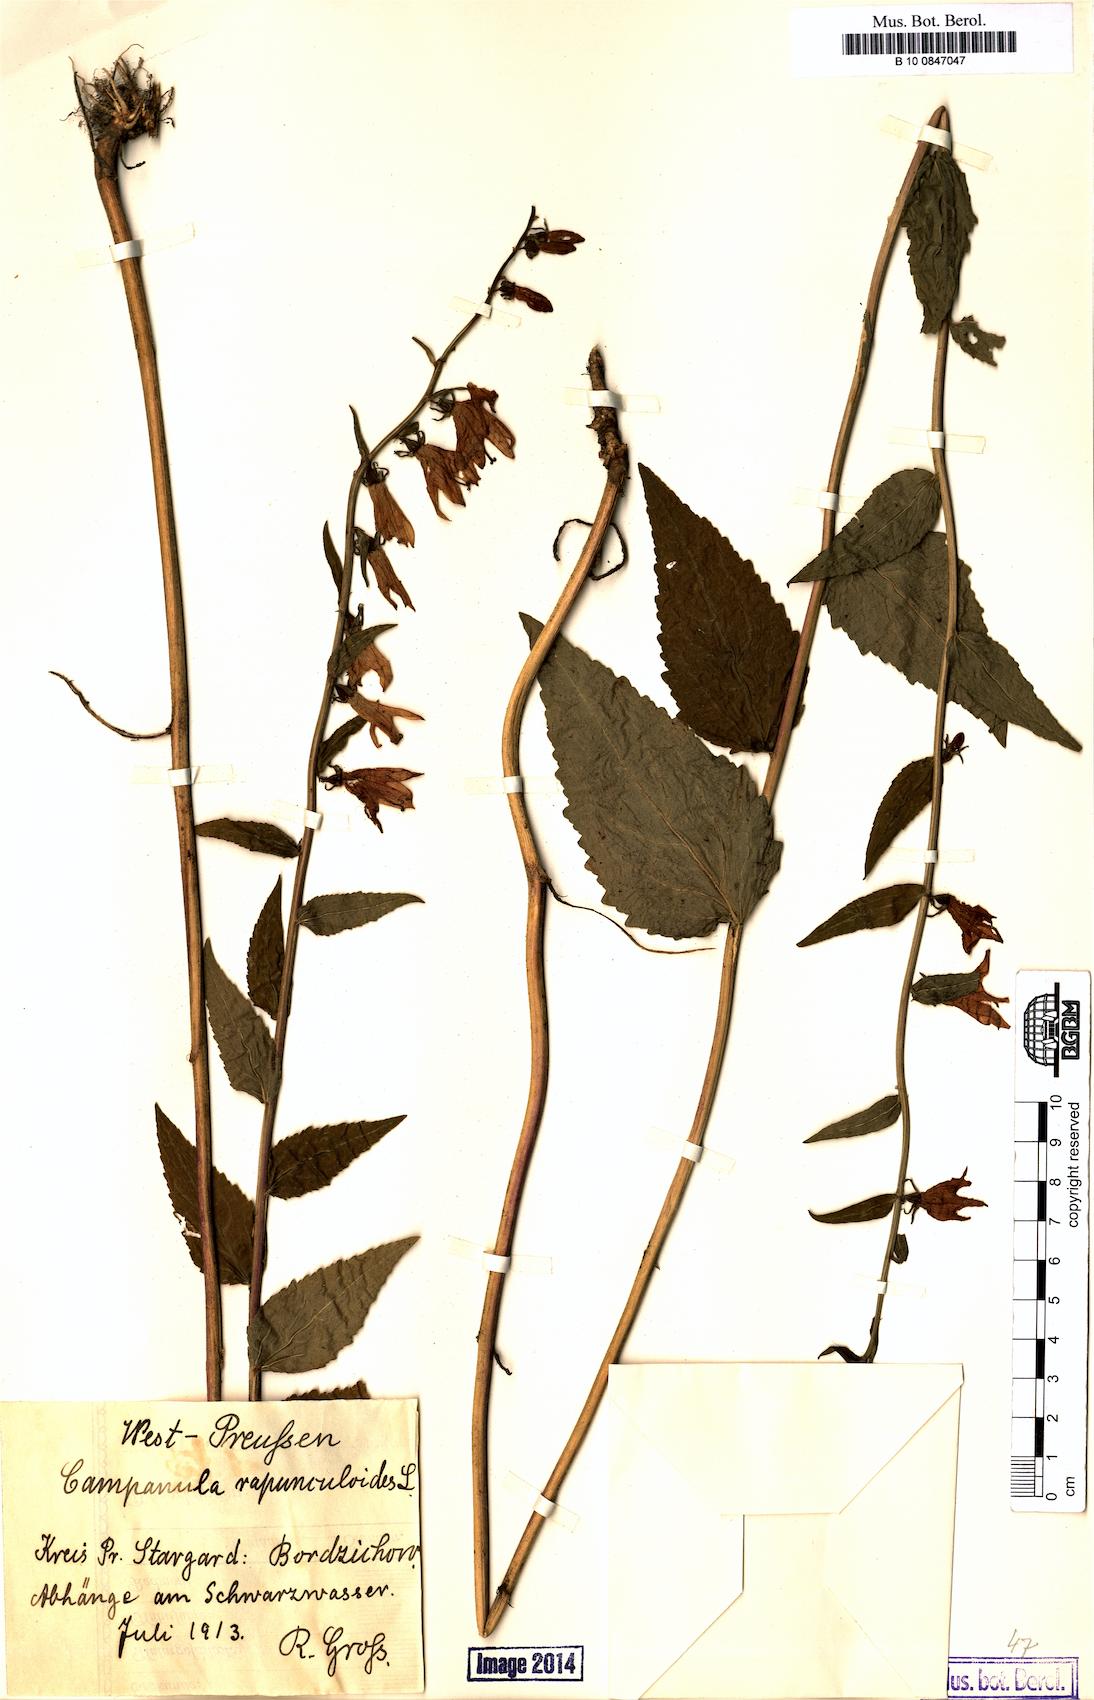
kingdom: Plantae
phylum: Tracheophyta
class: Magnoliopsida
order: Asterales
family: Campanulaceae
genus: Campanula
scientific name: Campanula rapunculoides
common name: Creeping bellflower
